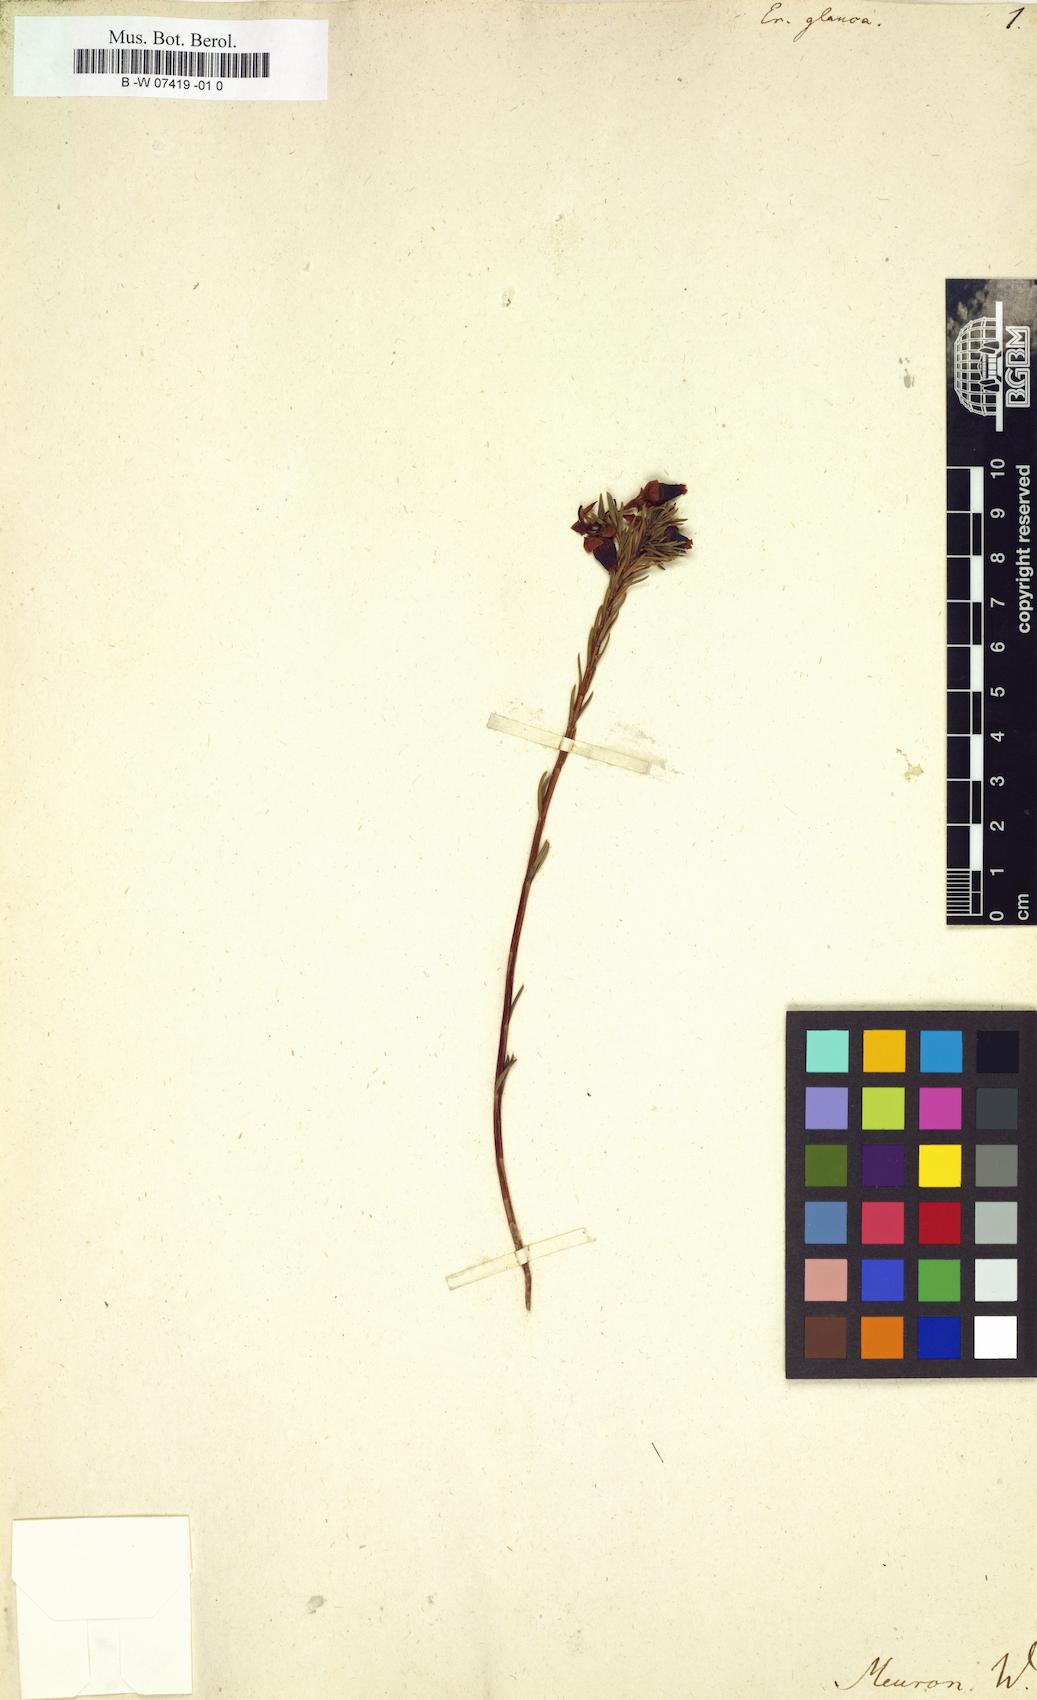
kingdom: Plantae
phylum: Tracheophyta
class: Magnoliopsida
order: Ericales
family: Ericaceae
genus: Erica
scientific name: Erica glauca
